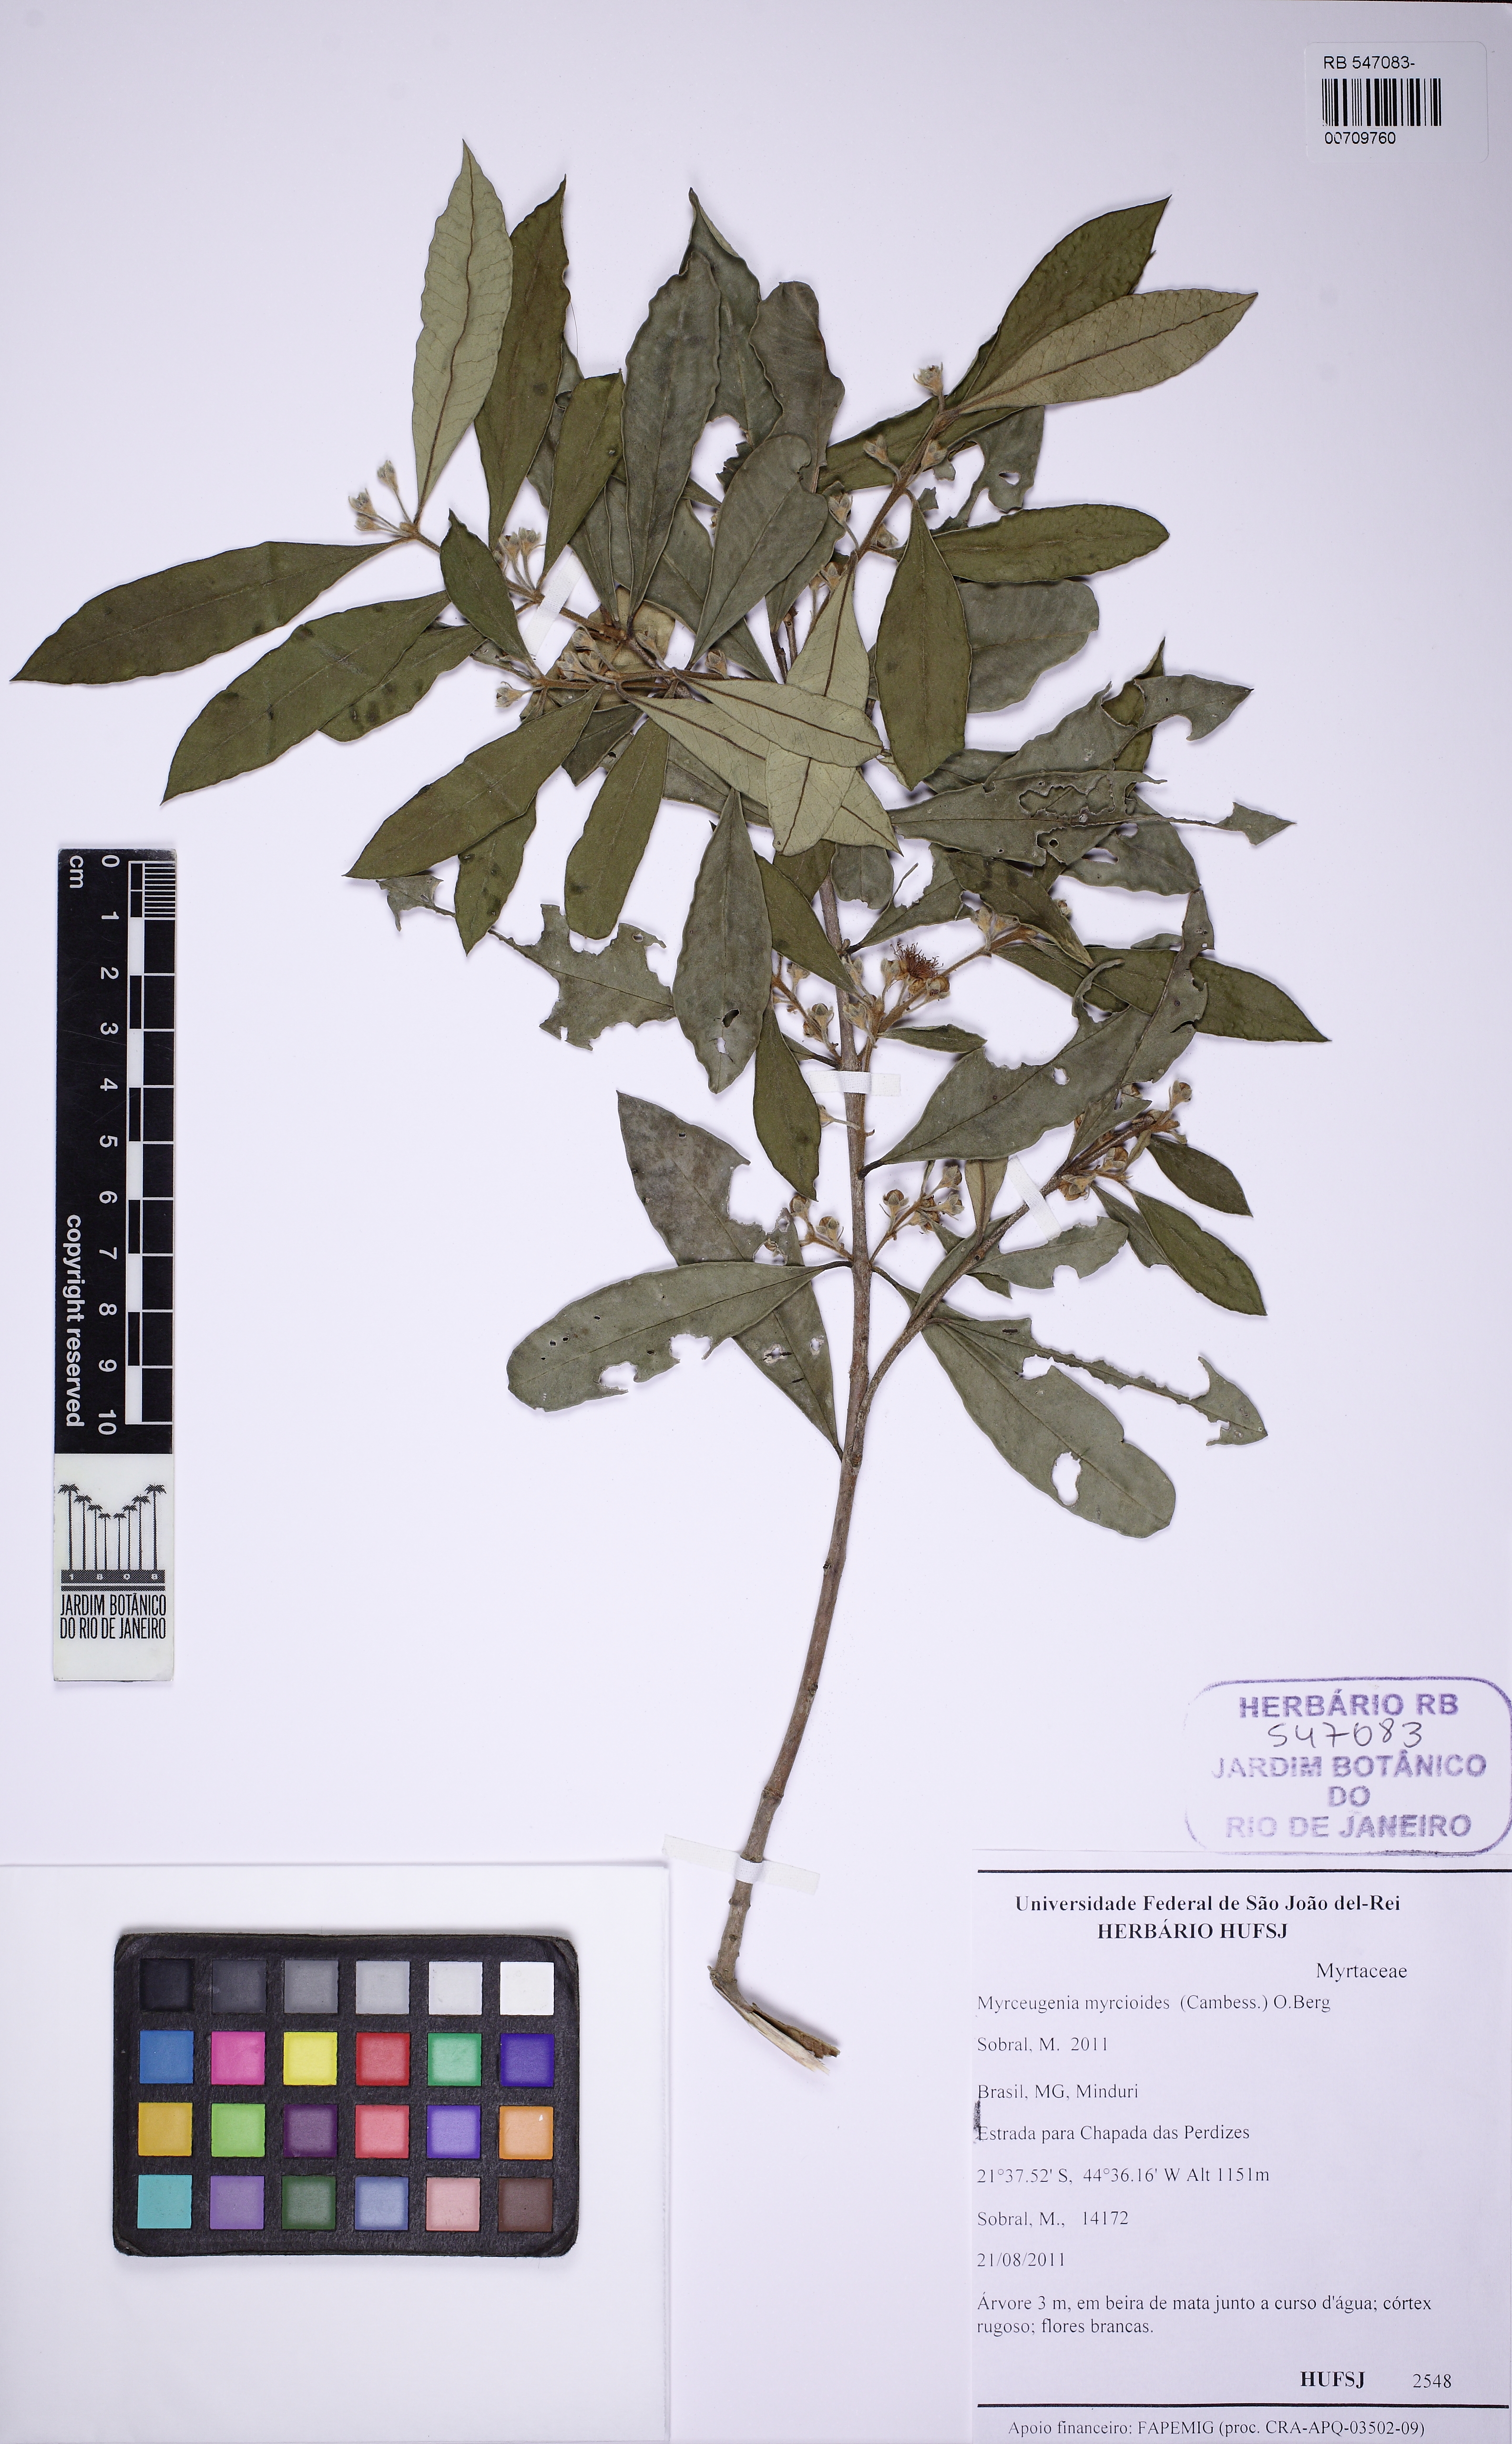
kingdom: Plantae
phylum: Tracheophyta
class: Magnoliopsida
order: Myrtales
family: Myrtaceae
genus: Myrceugenia
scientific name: Myrceugenia rufescens
